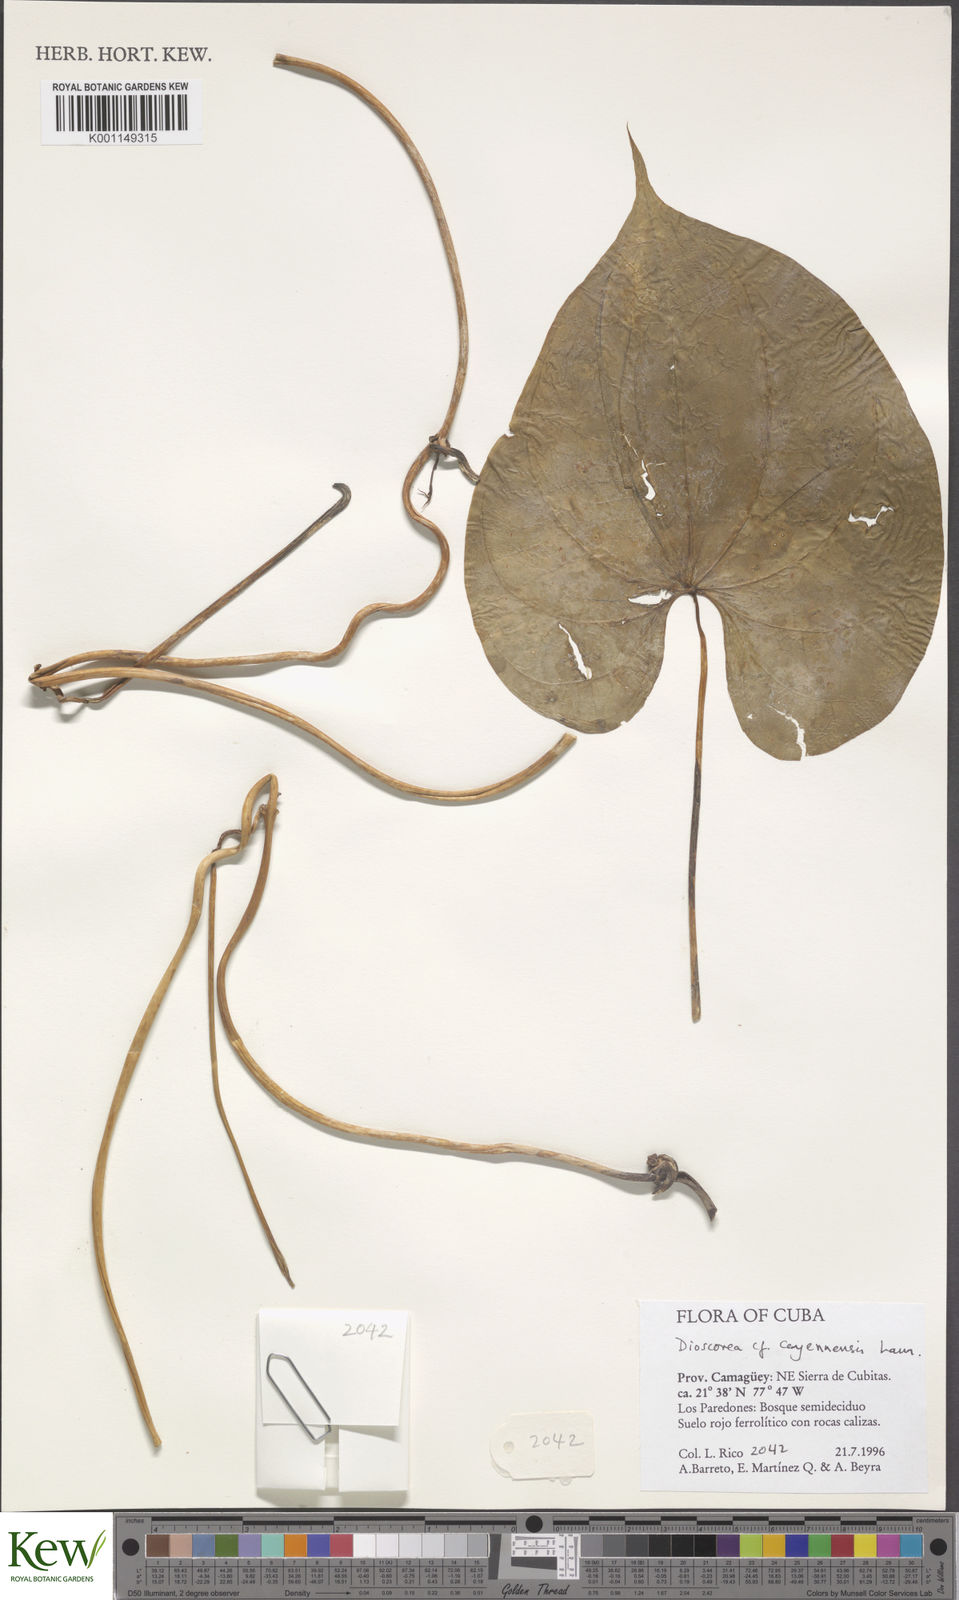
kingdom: Plantae
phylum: Tracheophyta
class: Liliopsida
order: Dioscoreales
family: Dioscoreaceae
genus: Dioscorea
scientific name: Dioscorea cayenensis
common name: Attoto yam
